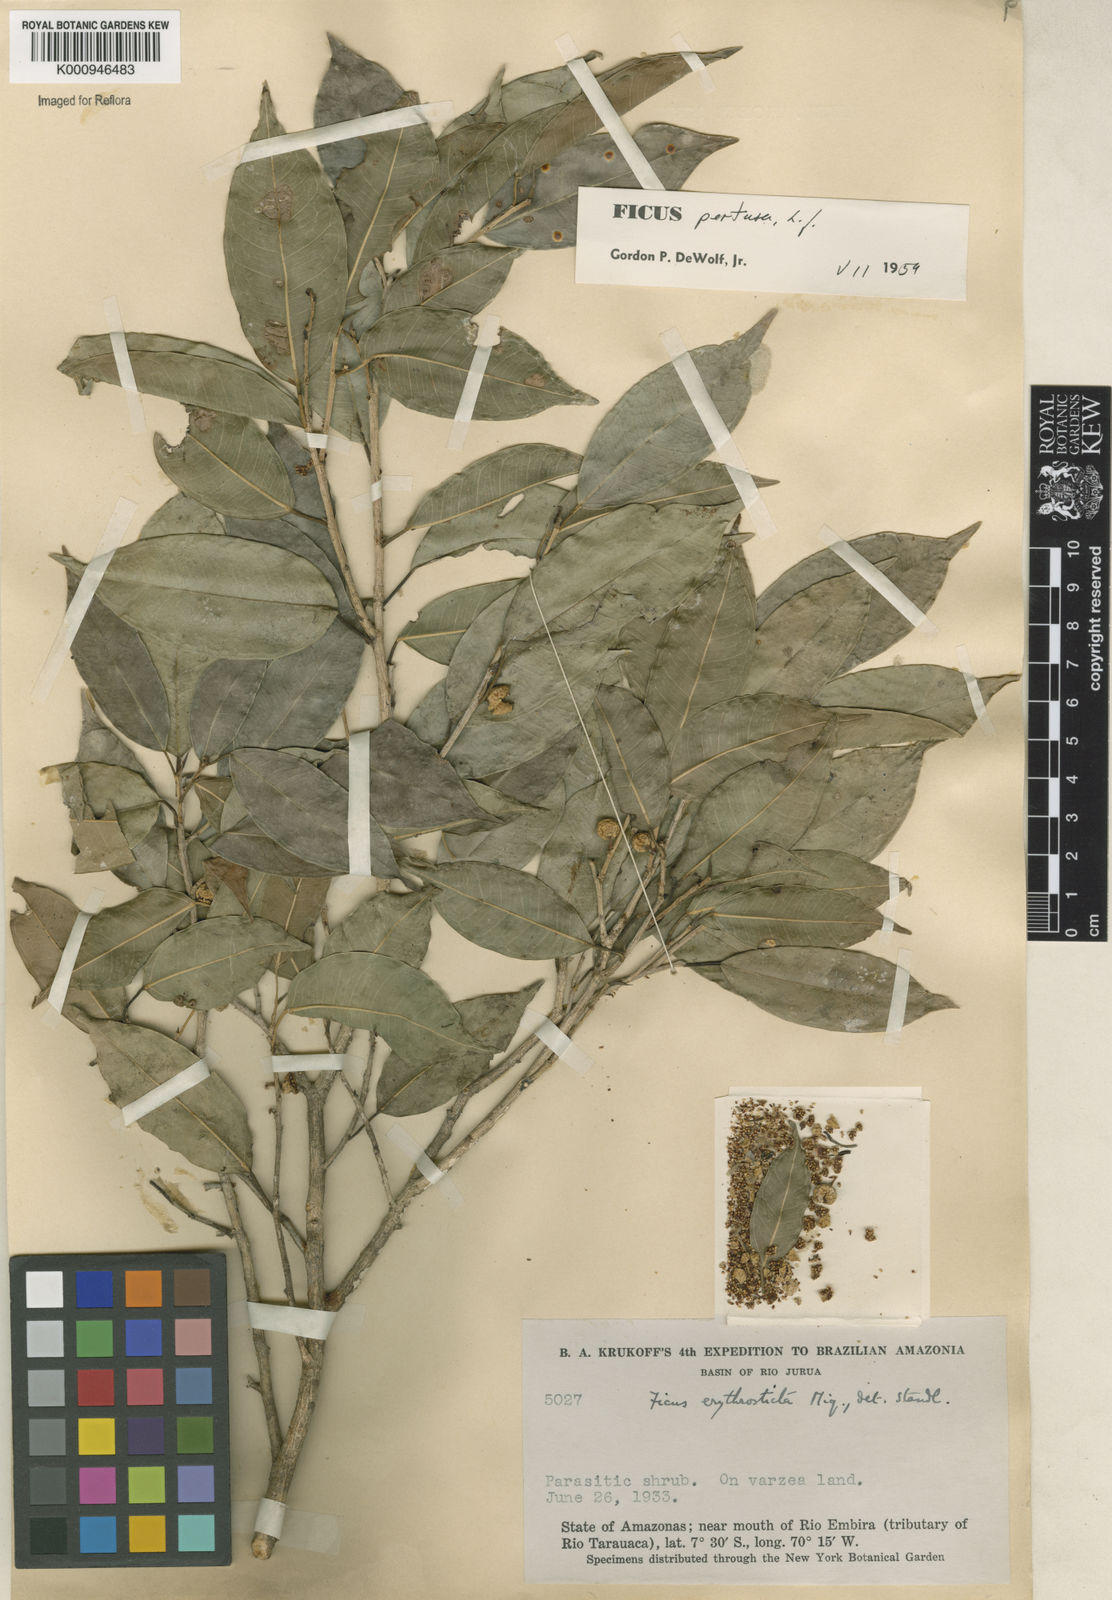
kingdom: Plantae
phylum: Tracheophyta
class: Magnoliopsida
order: Rosales
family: Moraceae
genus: Ficus
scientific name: Ficus pertusa
